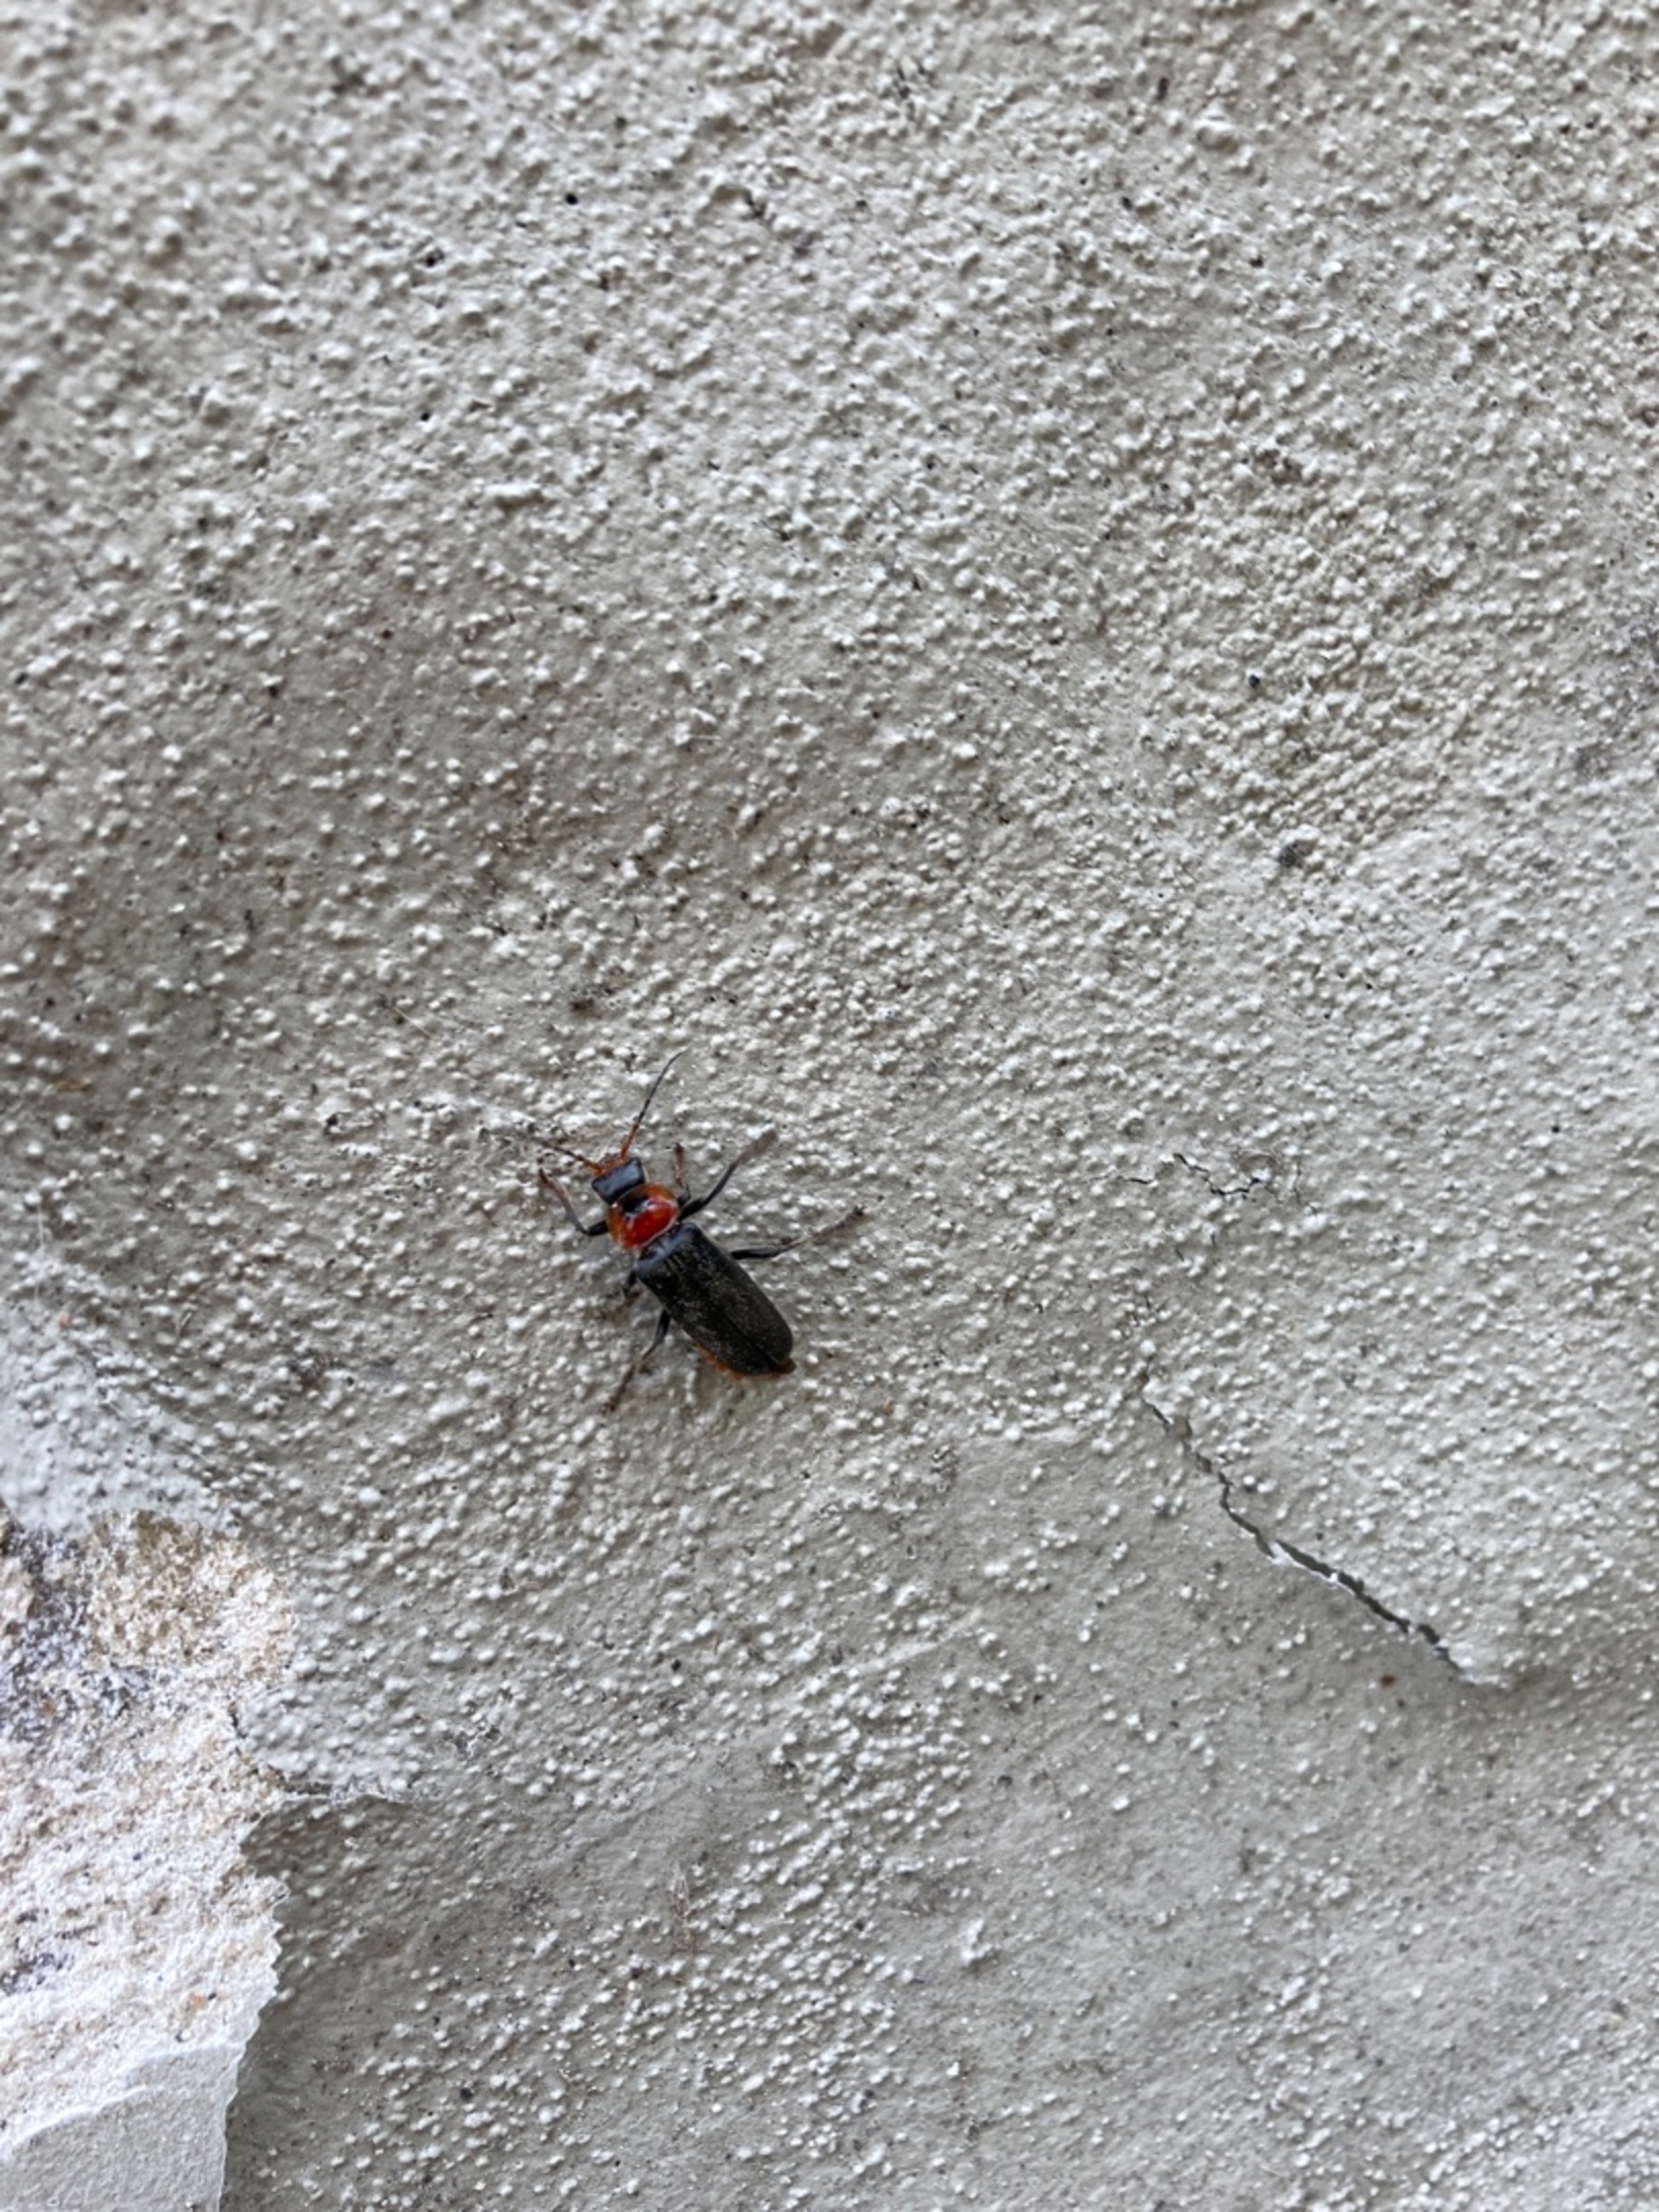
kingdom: Animalia
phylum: Arthropoda
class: Insecta
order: Coleoptera
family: Cantharidae
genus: Cantharis
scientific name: Cantharis fusca
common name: Stor blødvinge
